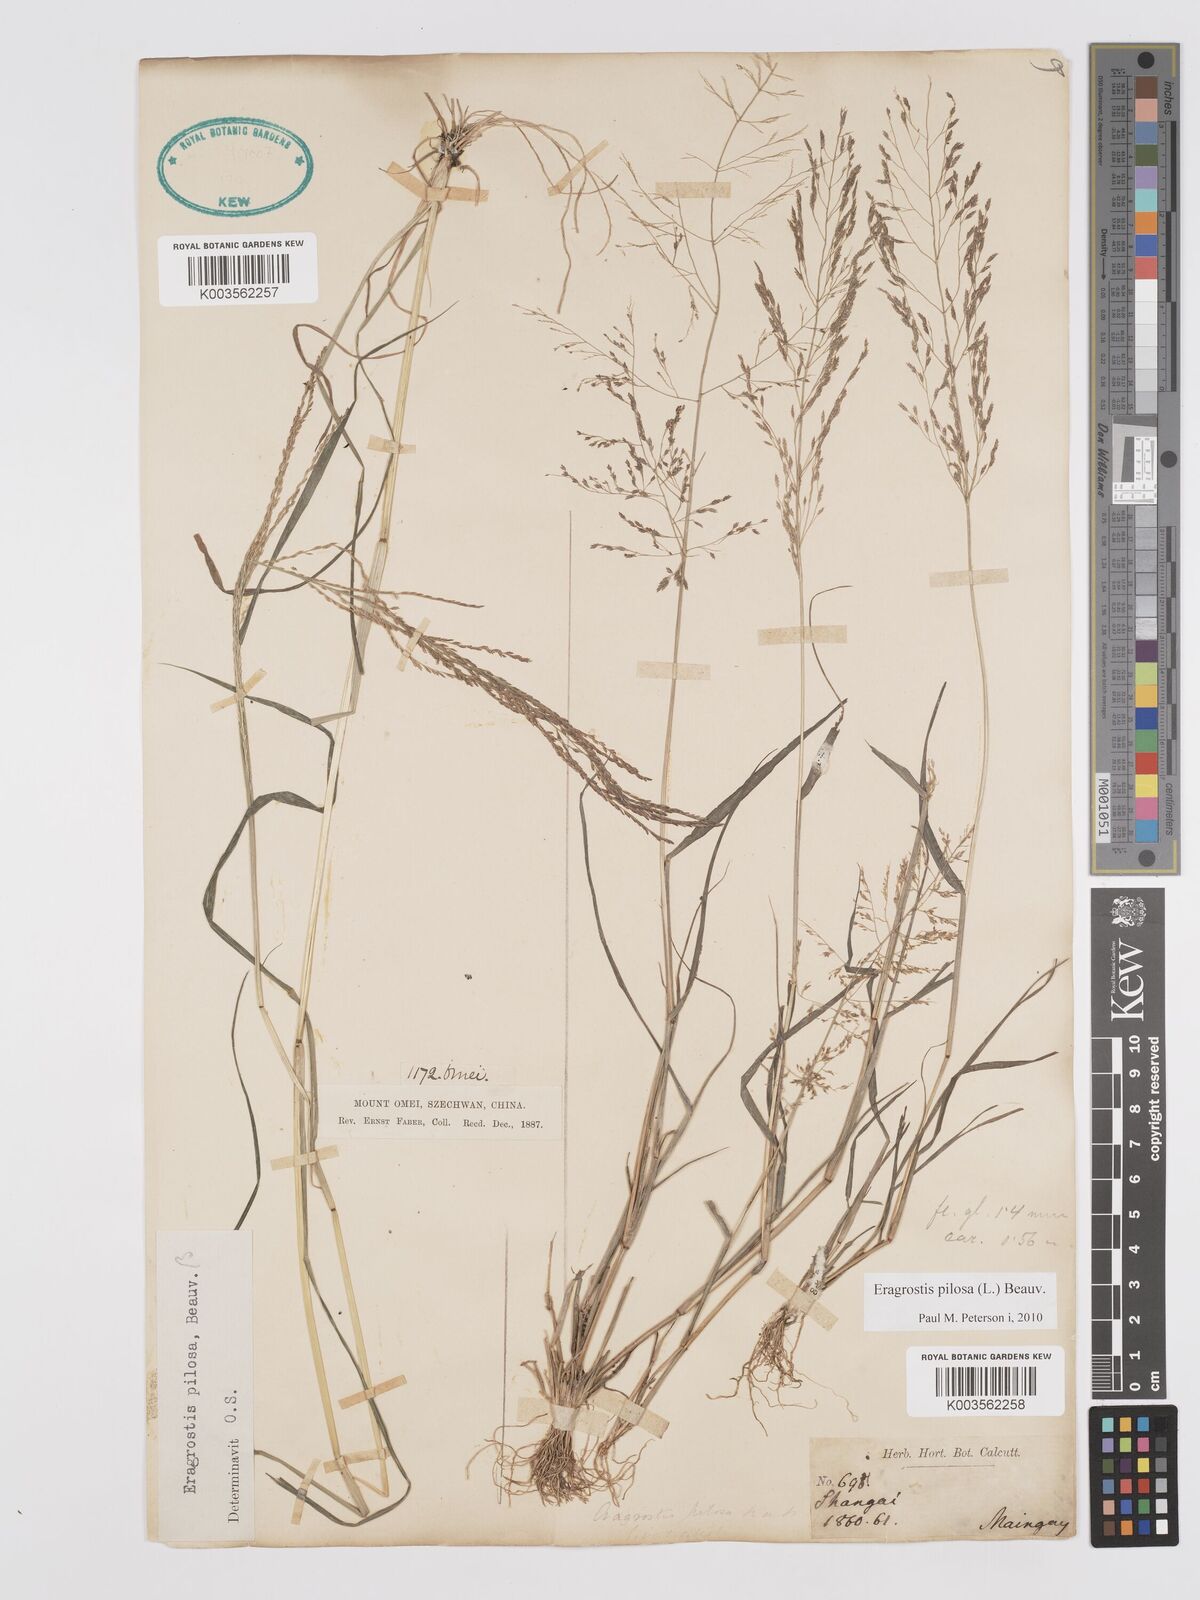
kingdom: Plantae
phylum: Tracheophyta
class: Liliopsida
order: Poales
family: Poaceae
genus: Eragrostis
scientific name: Eragrostis pilosa
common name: Indian lovegrass
